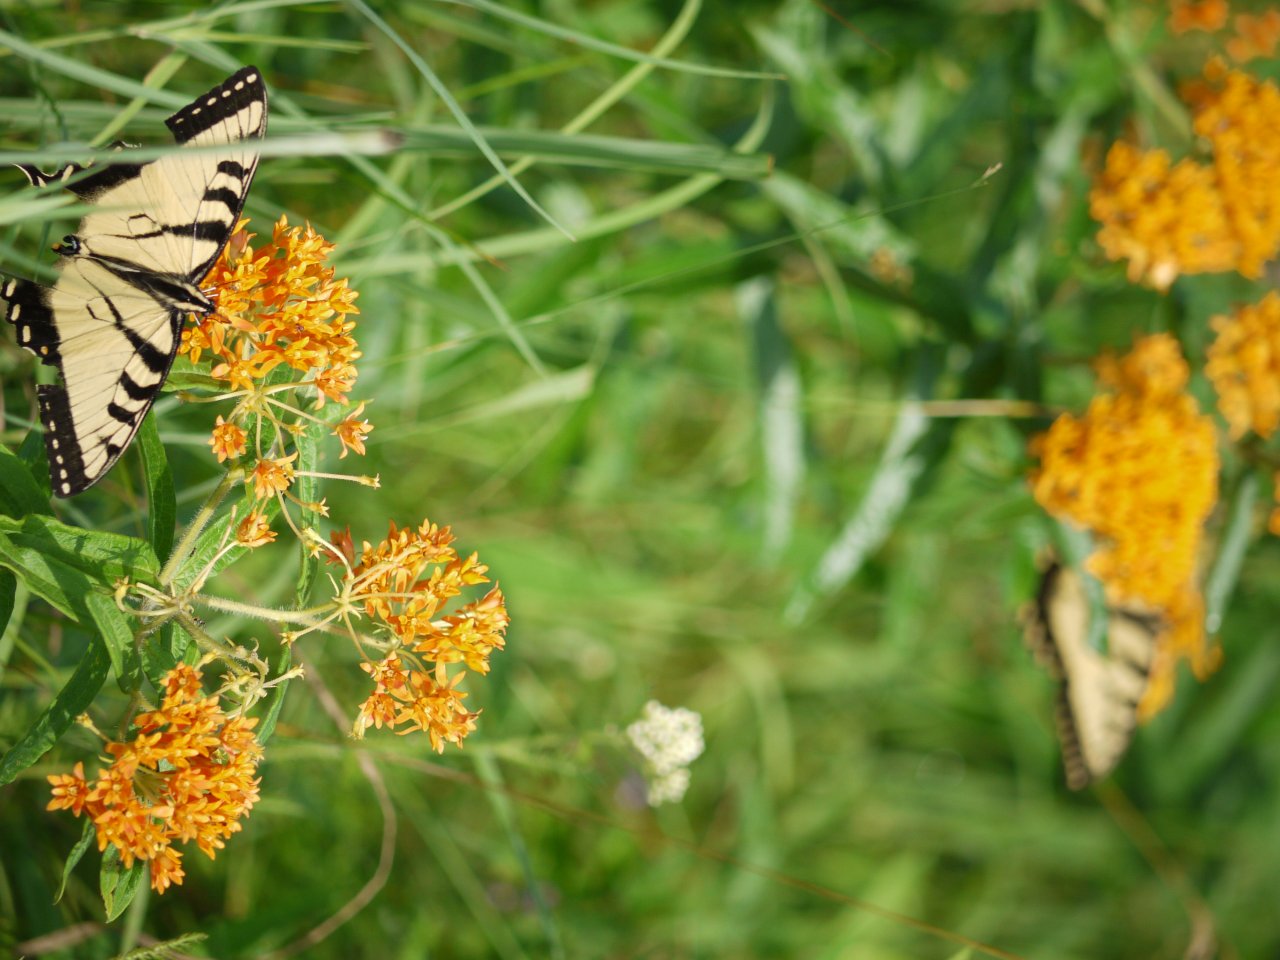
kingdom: Animalia
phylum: Arthropoda
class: Insecta
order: Lepidoptera
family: Papilionidae
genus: Pterourus
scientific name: Pterourus
